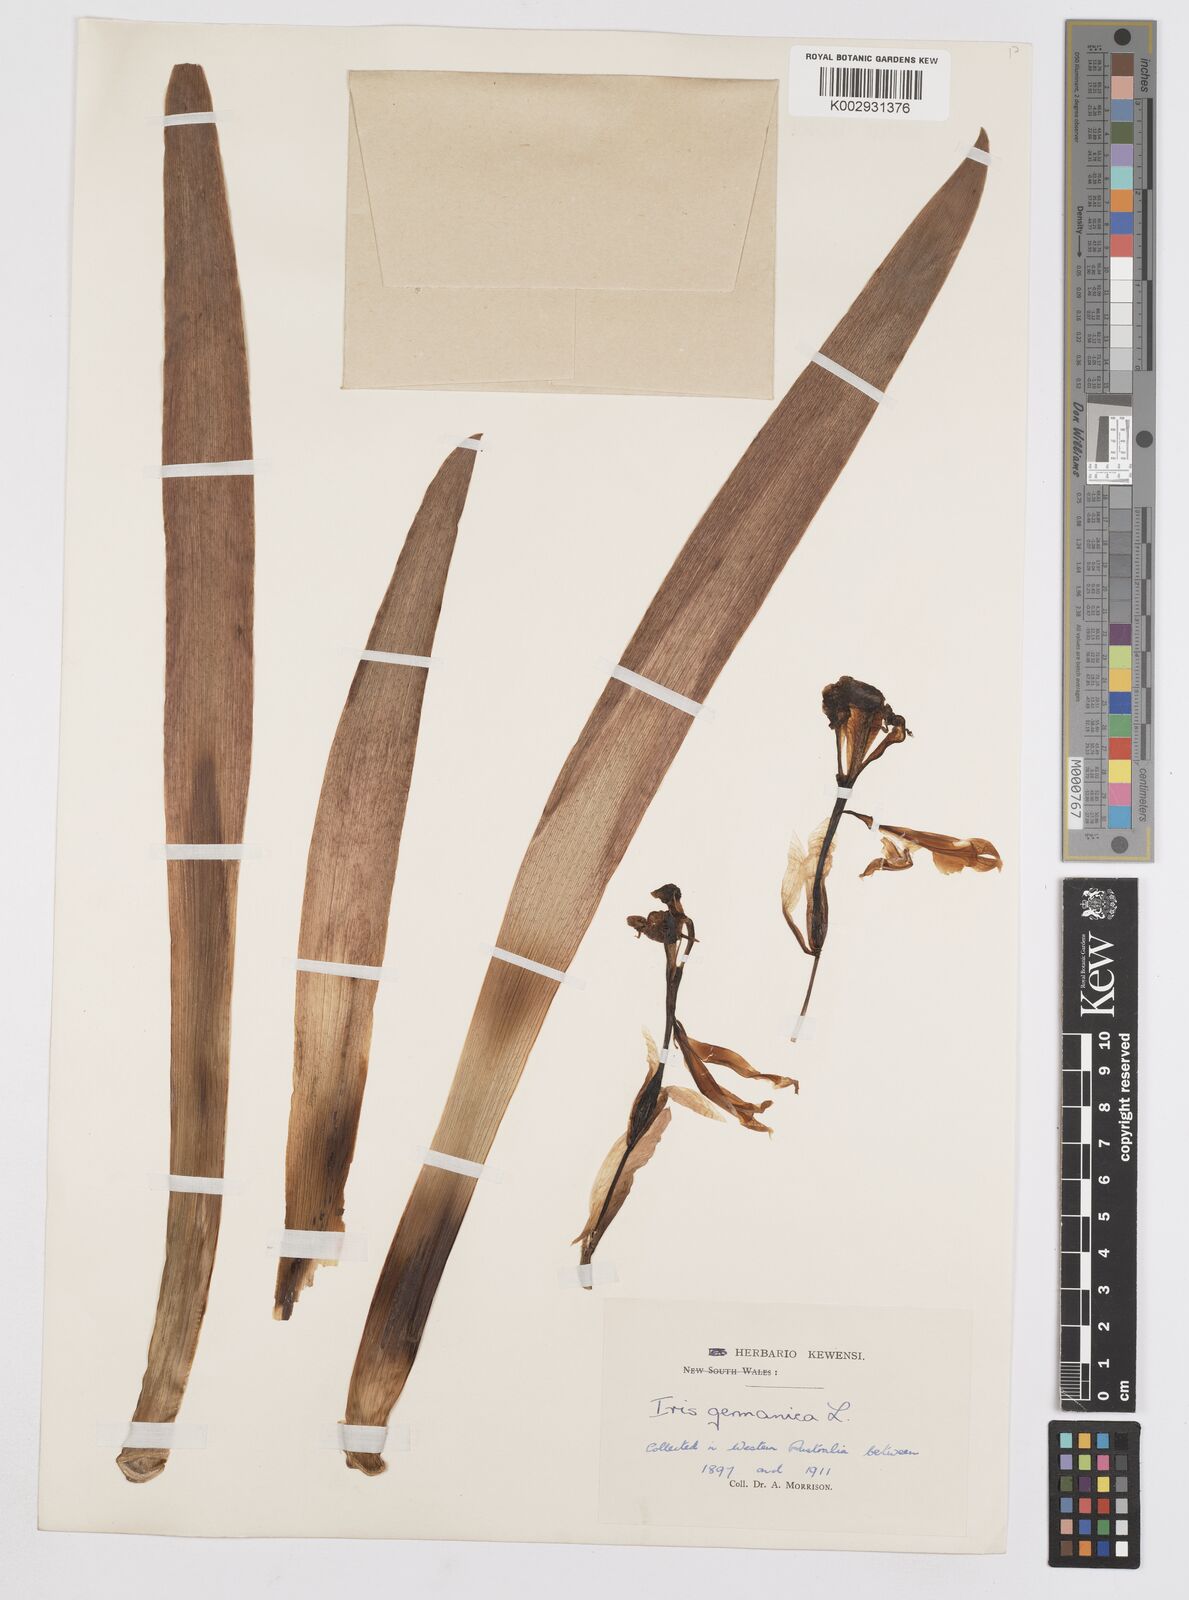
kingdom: Plantae
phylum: Tracheophyta
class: Liliopsida
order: Asparagales
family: Iridaceae
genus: Iris
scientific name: Iris germanica
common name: German iris
